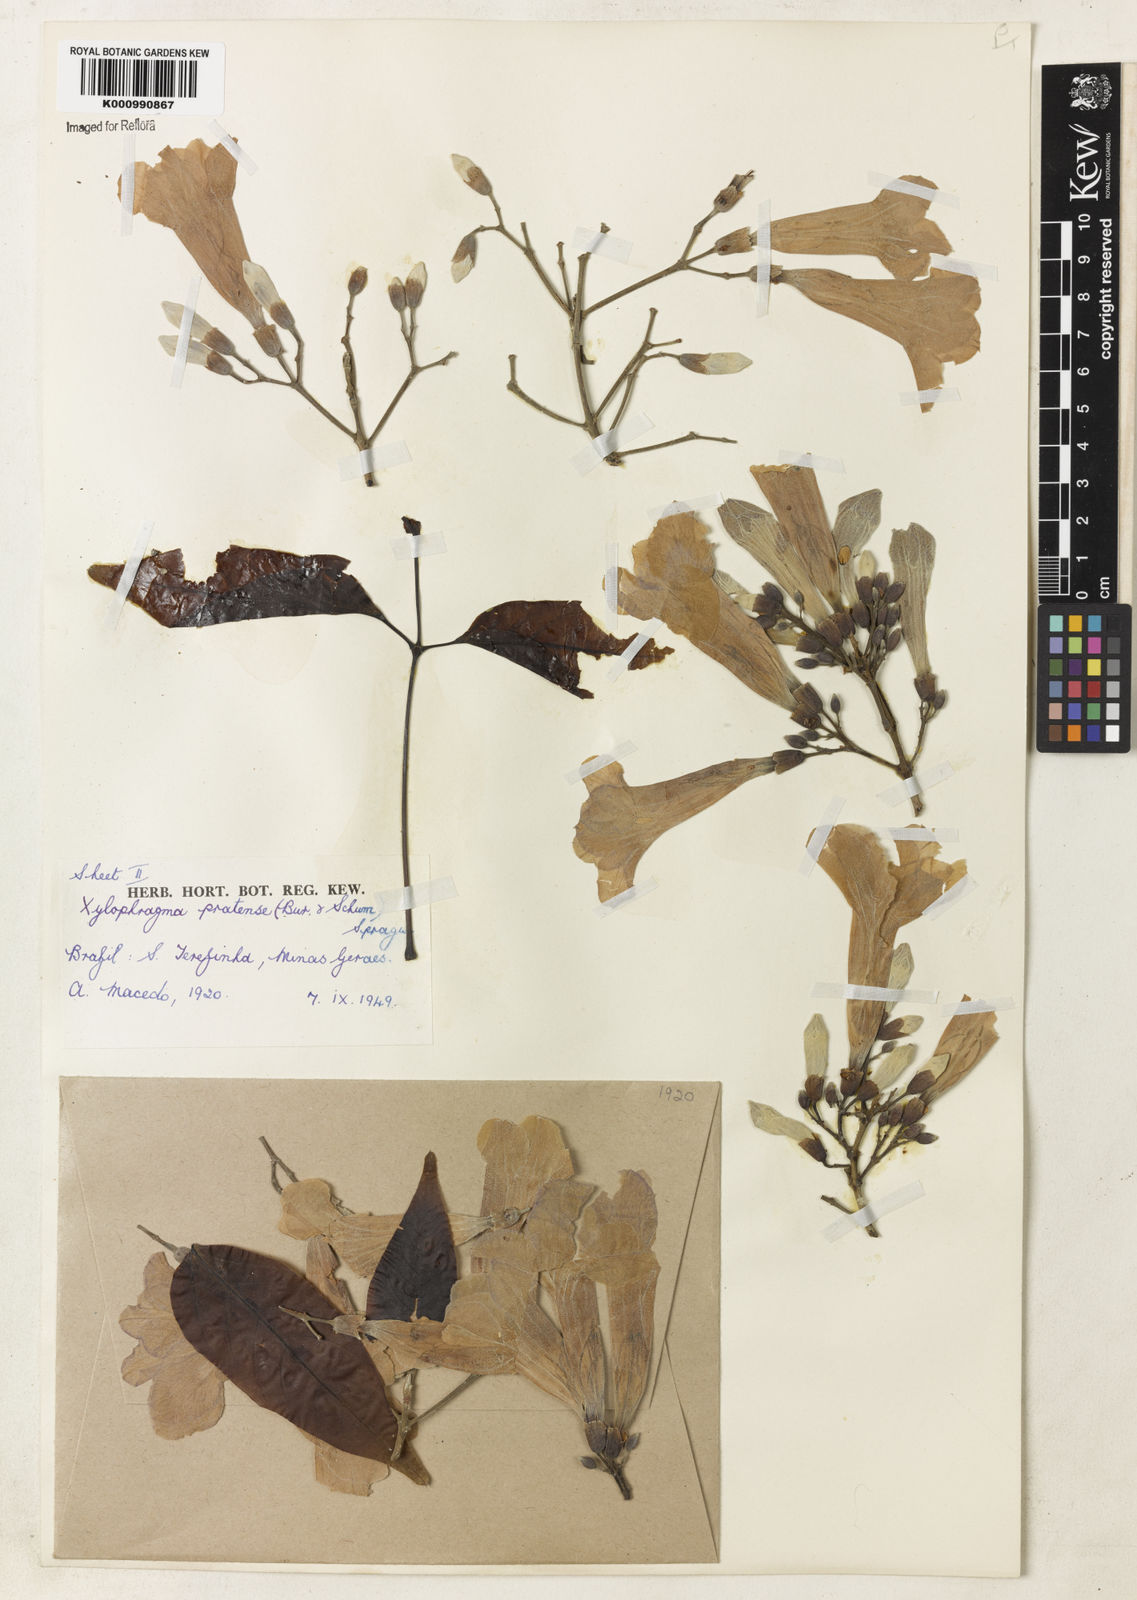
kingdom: Plantae
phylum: Tracheophyta
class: Magnoliopsida
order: Lamiales
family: Bignoniaceae
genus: Xylophragma
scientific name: Xylophragma pratense
